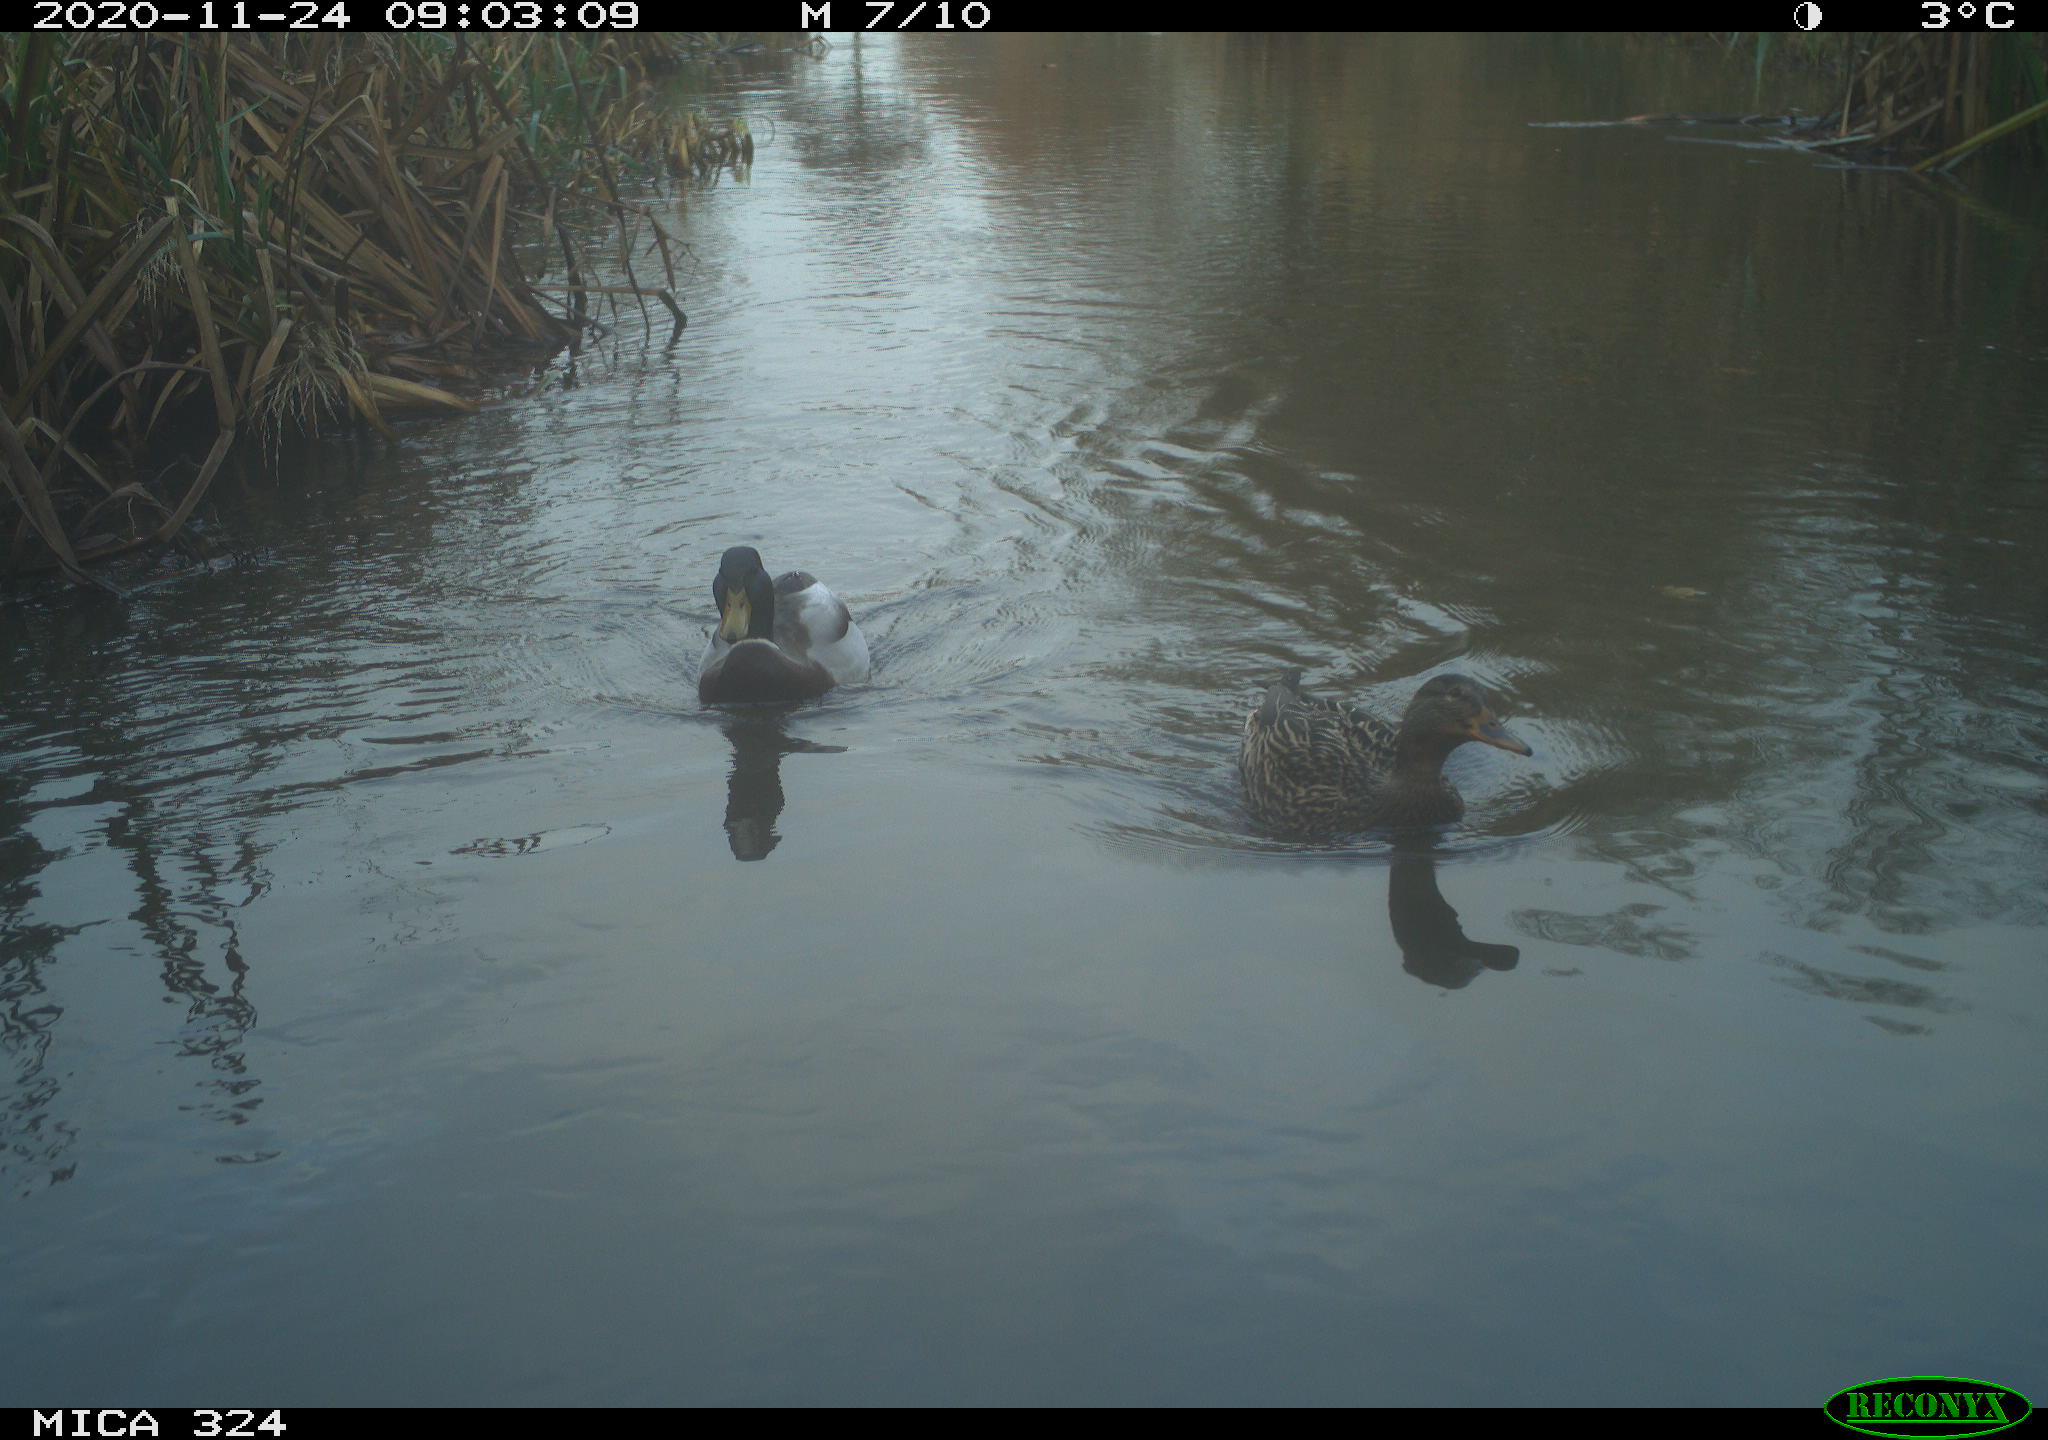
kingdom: Animalia
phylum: Chordata
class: Aves
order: Anseriformes
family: Anatidae
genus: Anas
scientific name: Anas platyrhynchos
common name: Mallard
